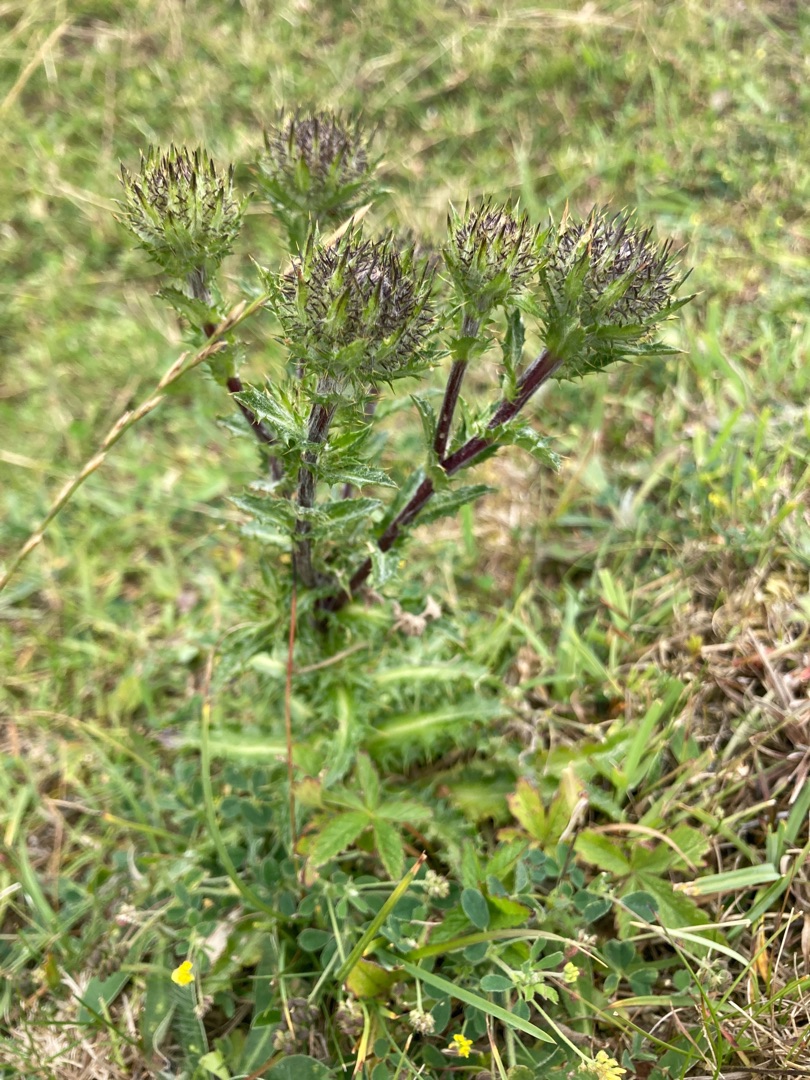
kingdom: Plantae
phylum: Tracheophyta
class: Magnoliopsida
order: Asterales
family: Asteraceae
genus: Carlina
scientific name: Carlina vulgaris
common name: Bakketidsel
